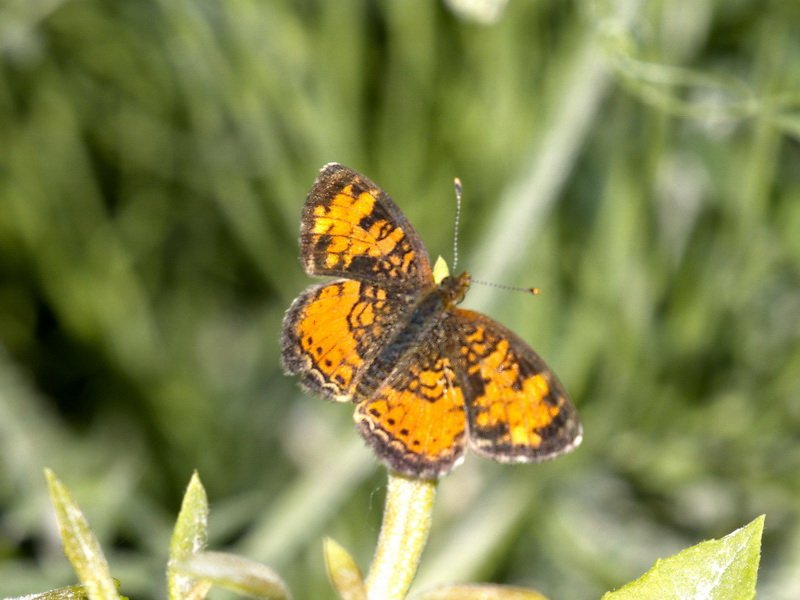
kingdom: Animalia
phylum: Arthropoda
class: Insecta
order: Lepidoptera
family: Nymphalidae
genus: Phyciodes
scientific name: Phyciodes tharos
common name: Northern Crescent
